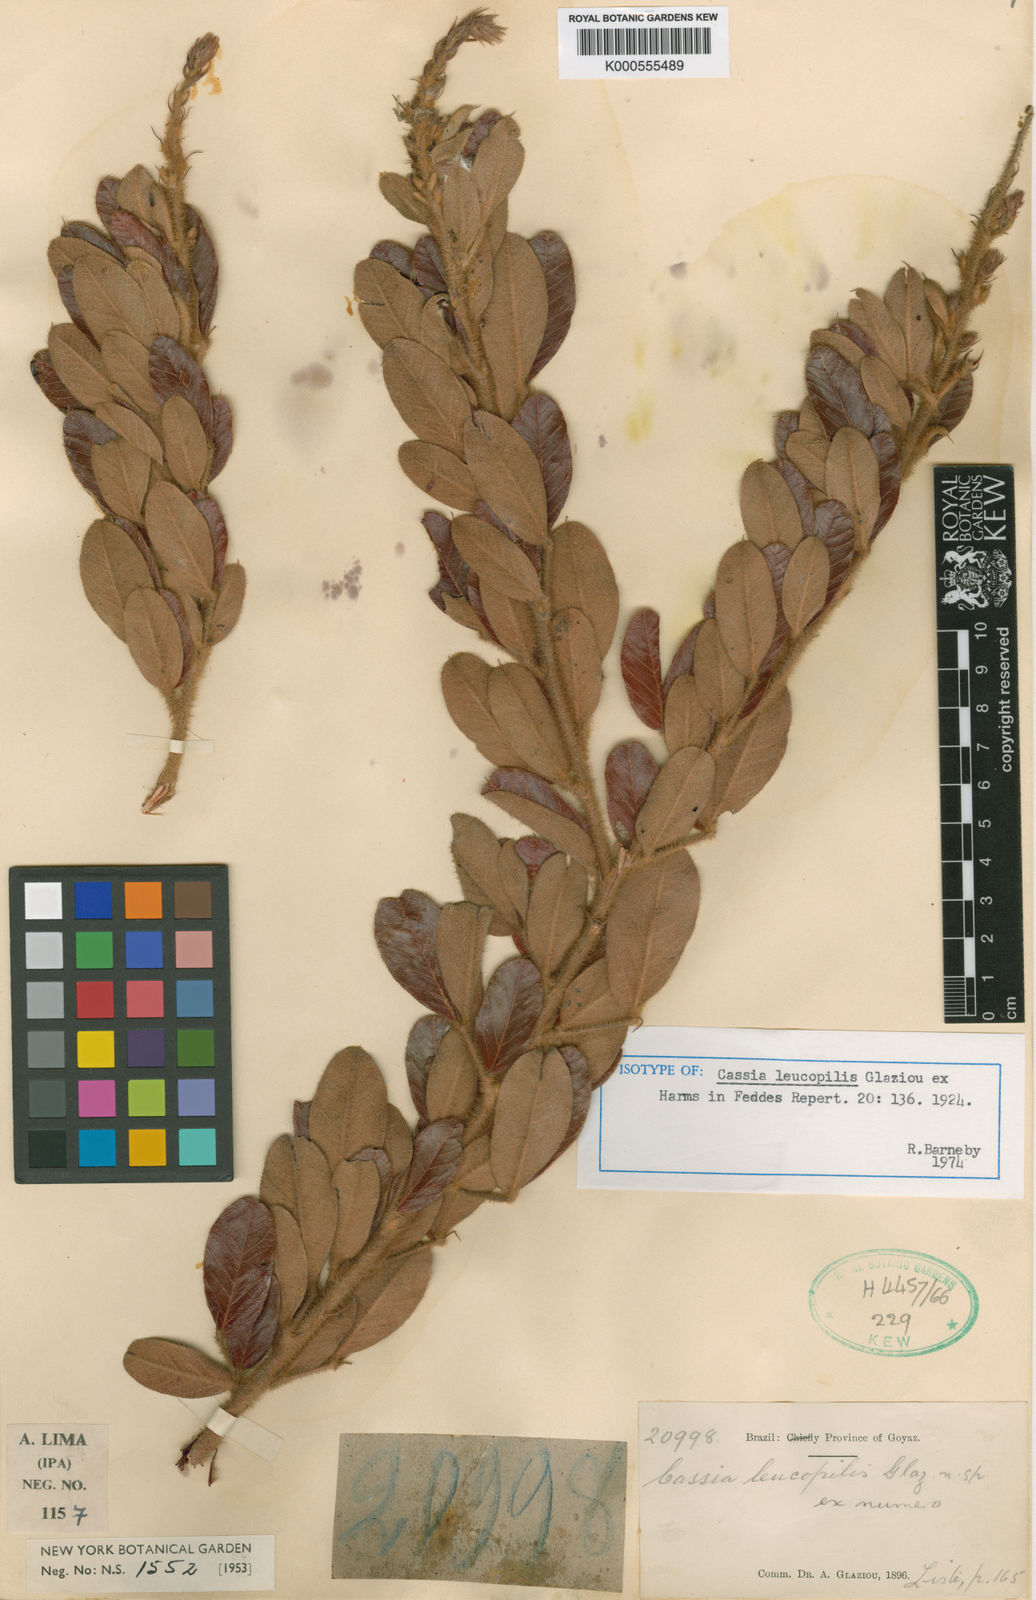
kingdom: Plantae
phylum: Tracheophyta
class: Magnoliopsida
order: Fabales
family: Fabaceae
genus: Chamaecrista
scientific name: Chamaecrista leucopilis
